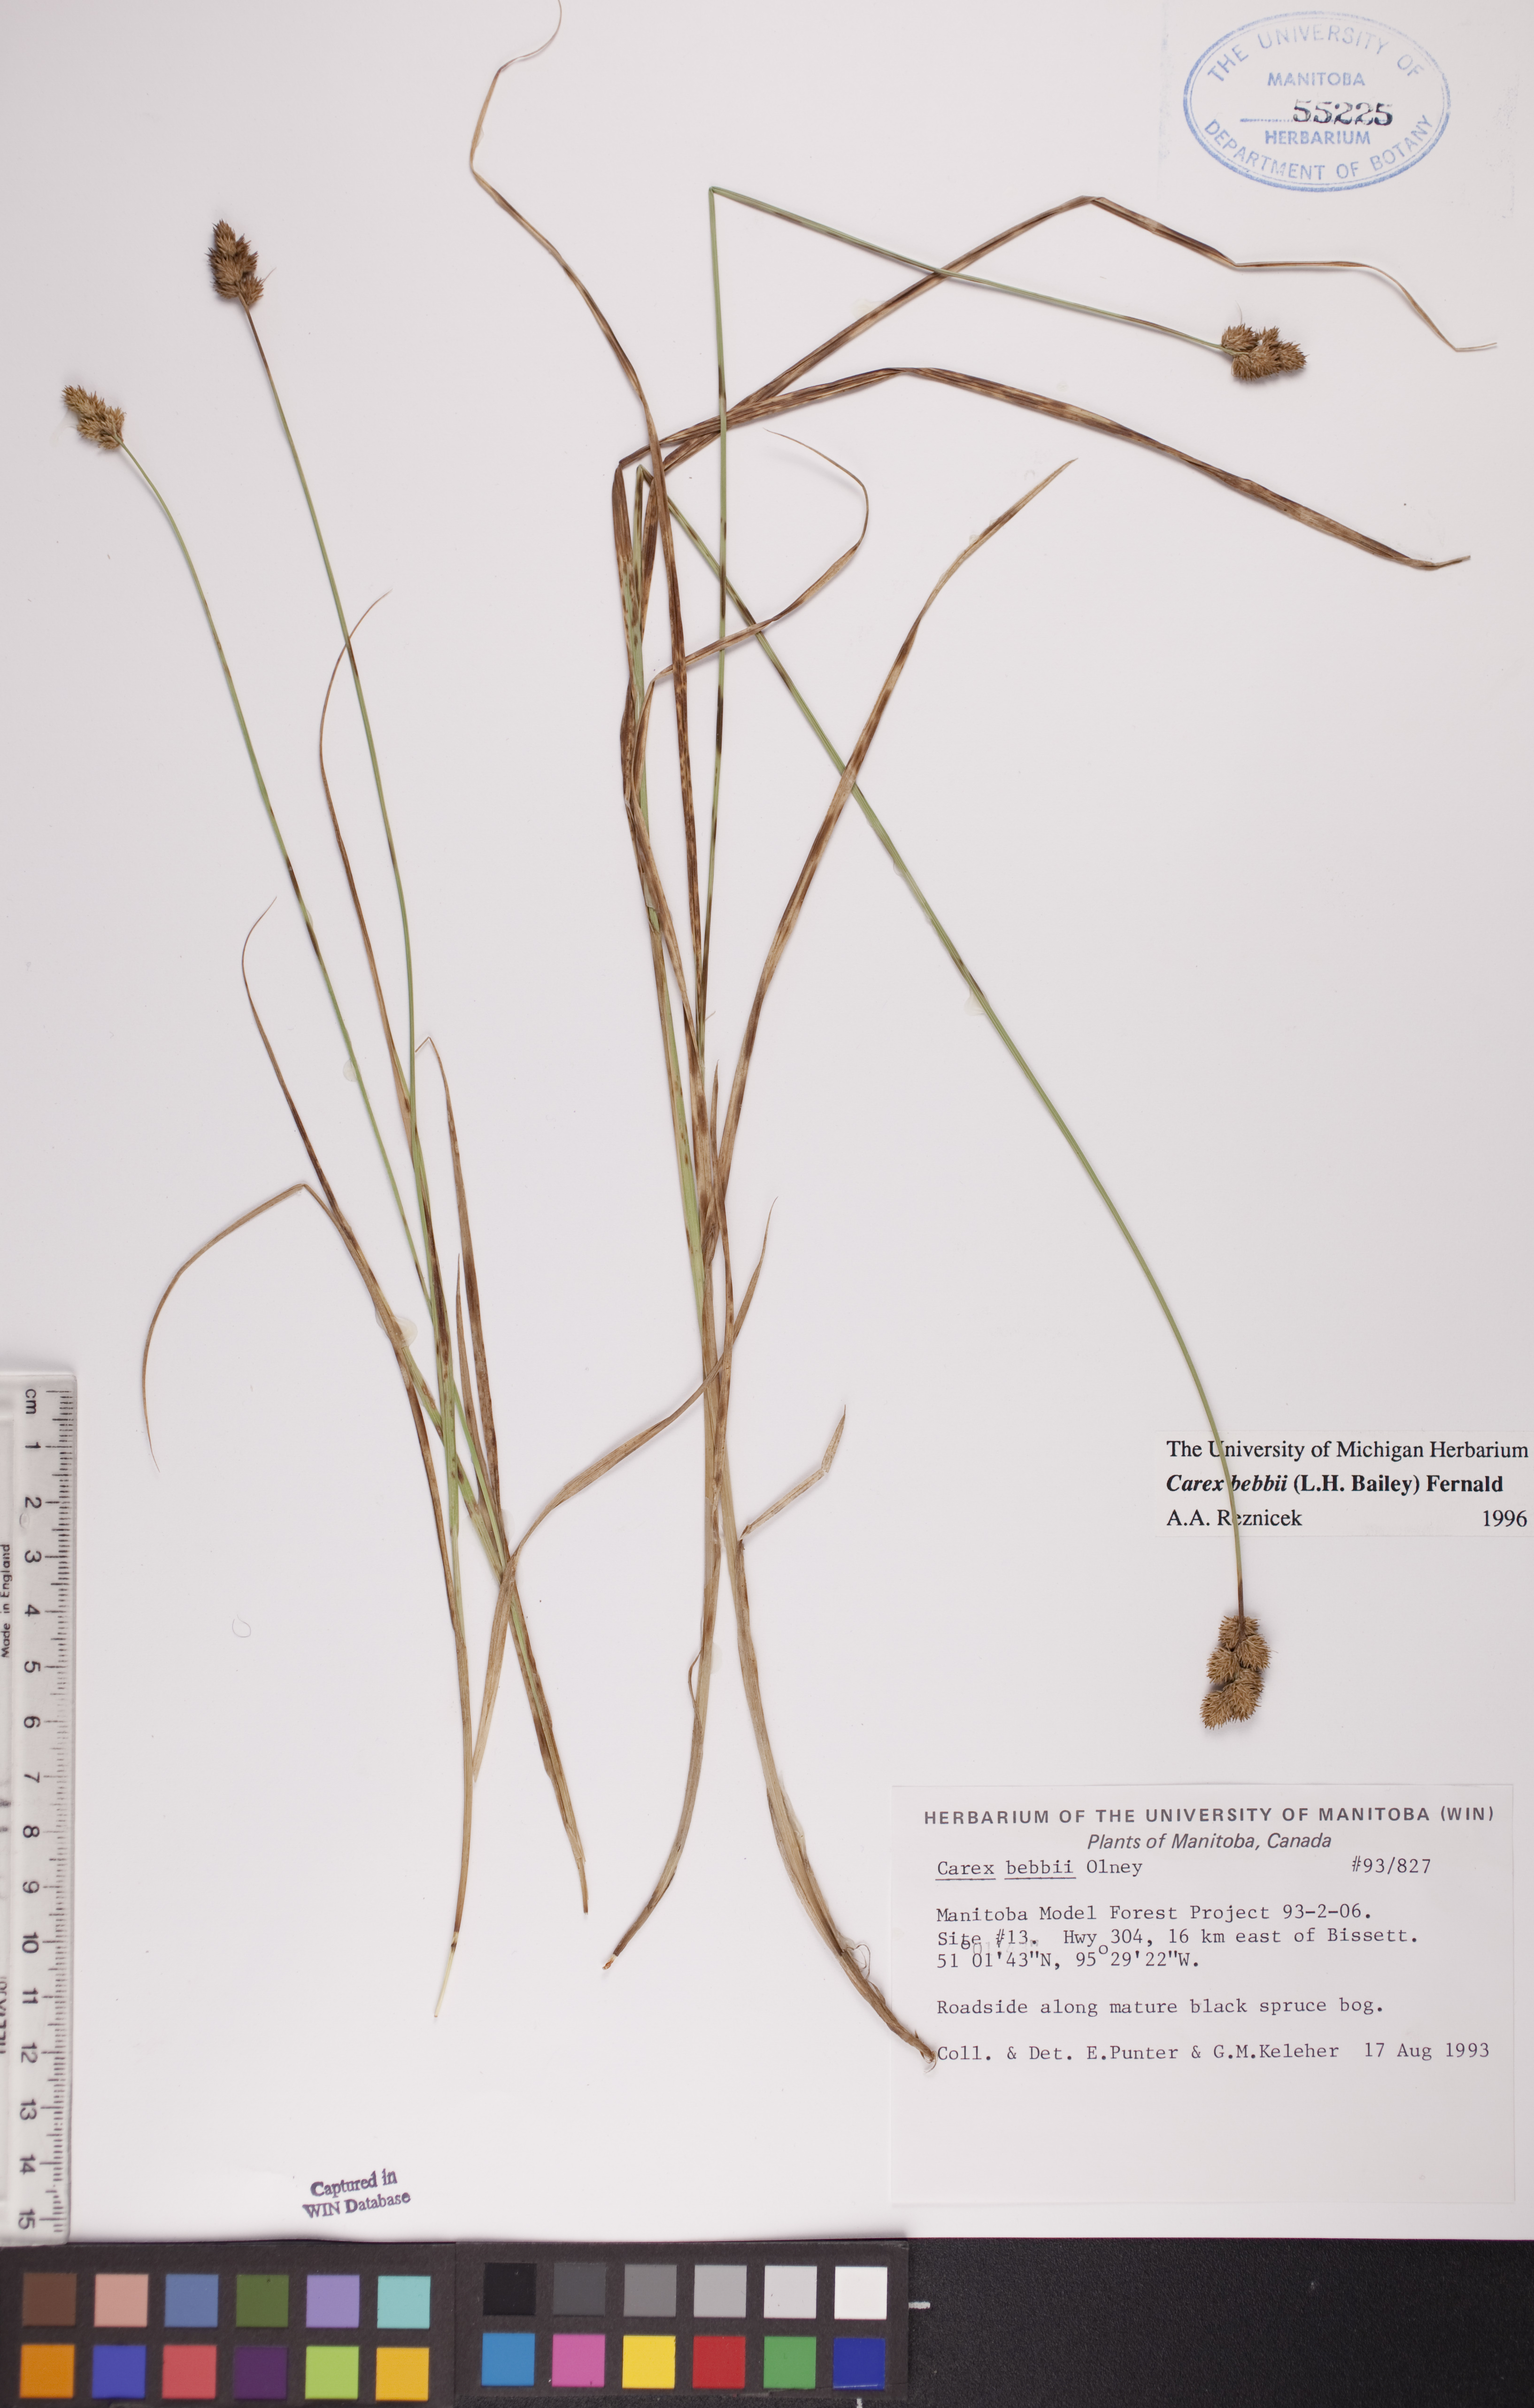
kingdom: Plantae
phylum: Tracheophyta
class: Liliopsida
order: Poales
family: Cyperaceae
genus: Carex
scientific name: Carex bebbii
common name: Bebb's sedge
